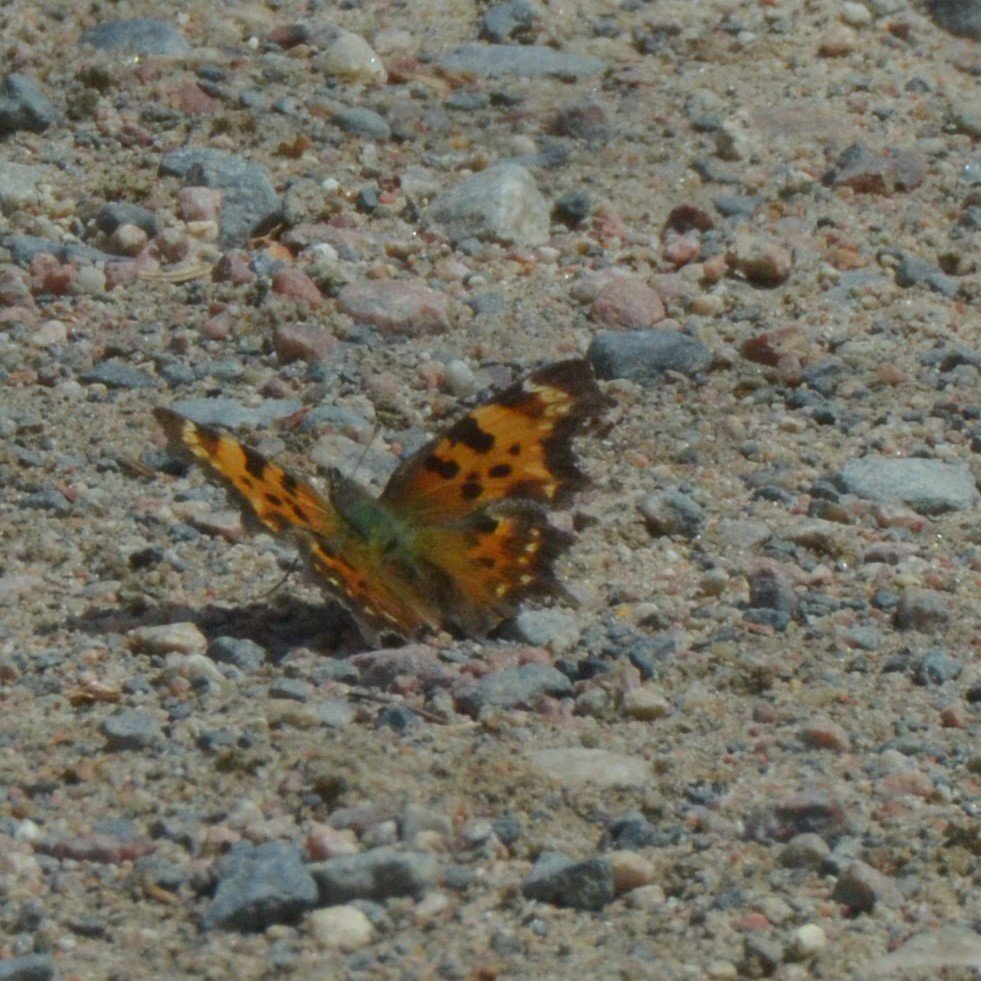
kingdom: Animalia
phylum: Arthropoda
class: Insecta
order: Lepidoptera
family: Nymphalidae
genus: Polygonia
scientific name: Polygonia faunus
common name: Green Comma
